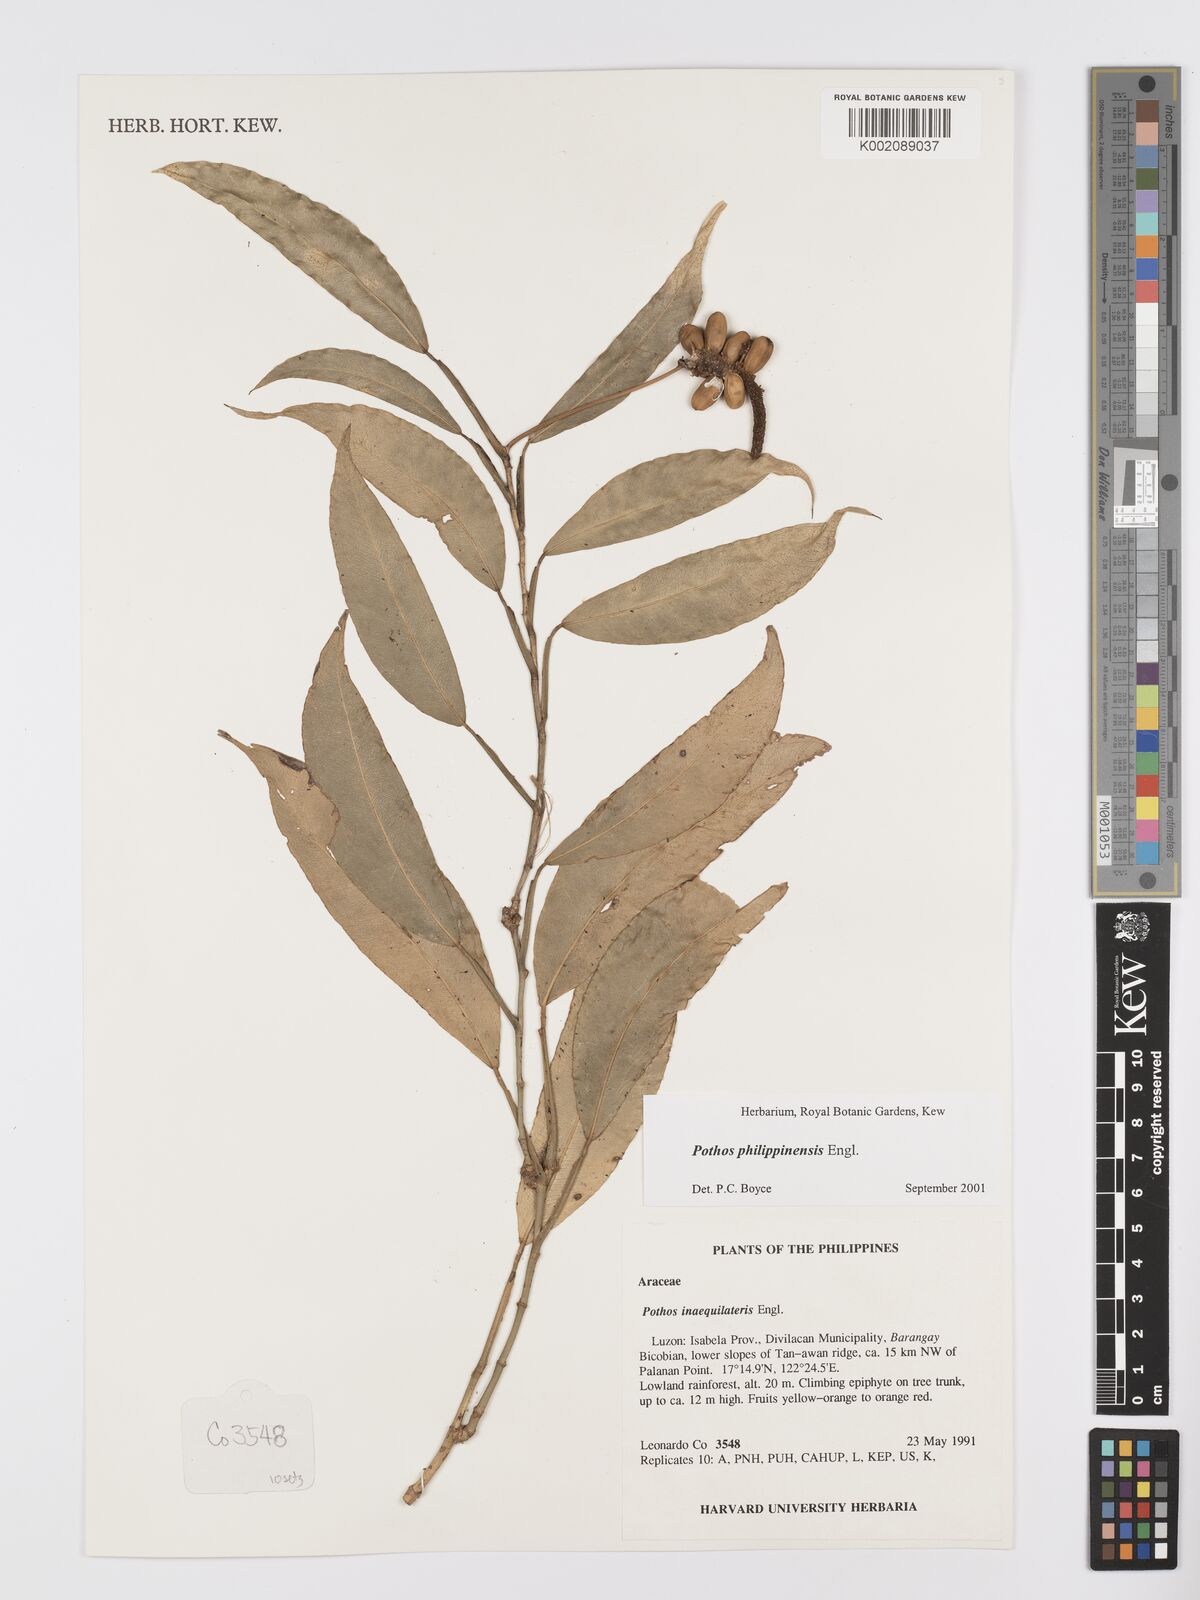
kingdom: Plantae
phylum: Tracheophyta
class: Liliopsida
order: Alismatales
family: Araceae
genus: Pothos
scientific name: Pothos philippinensis
